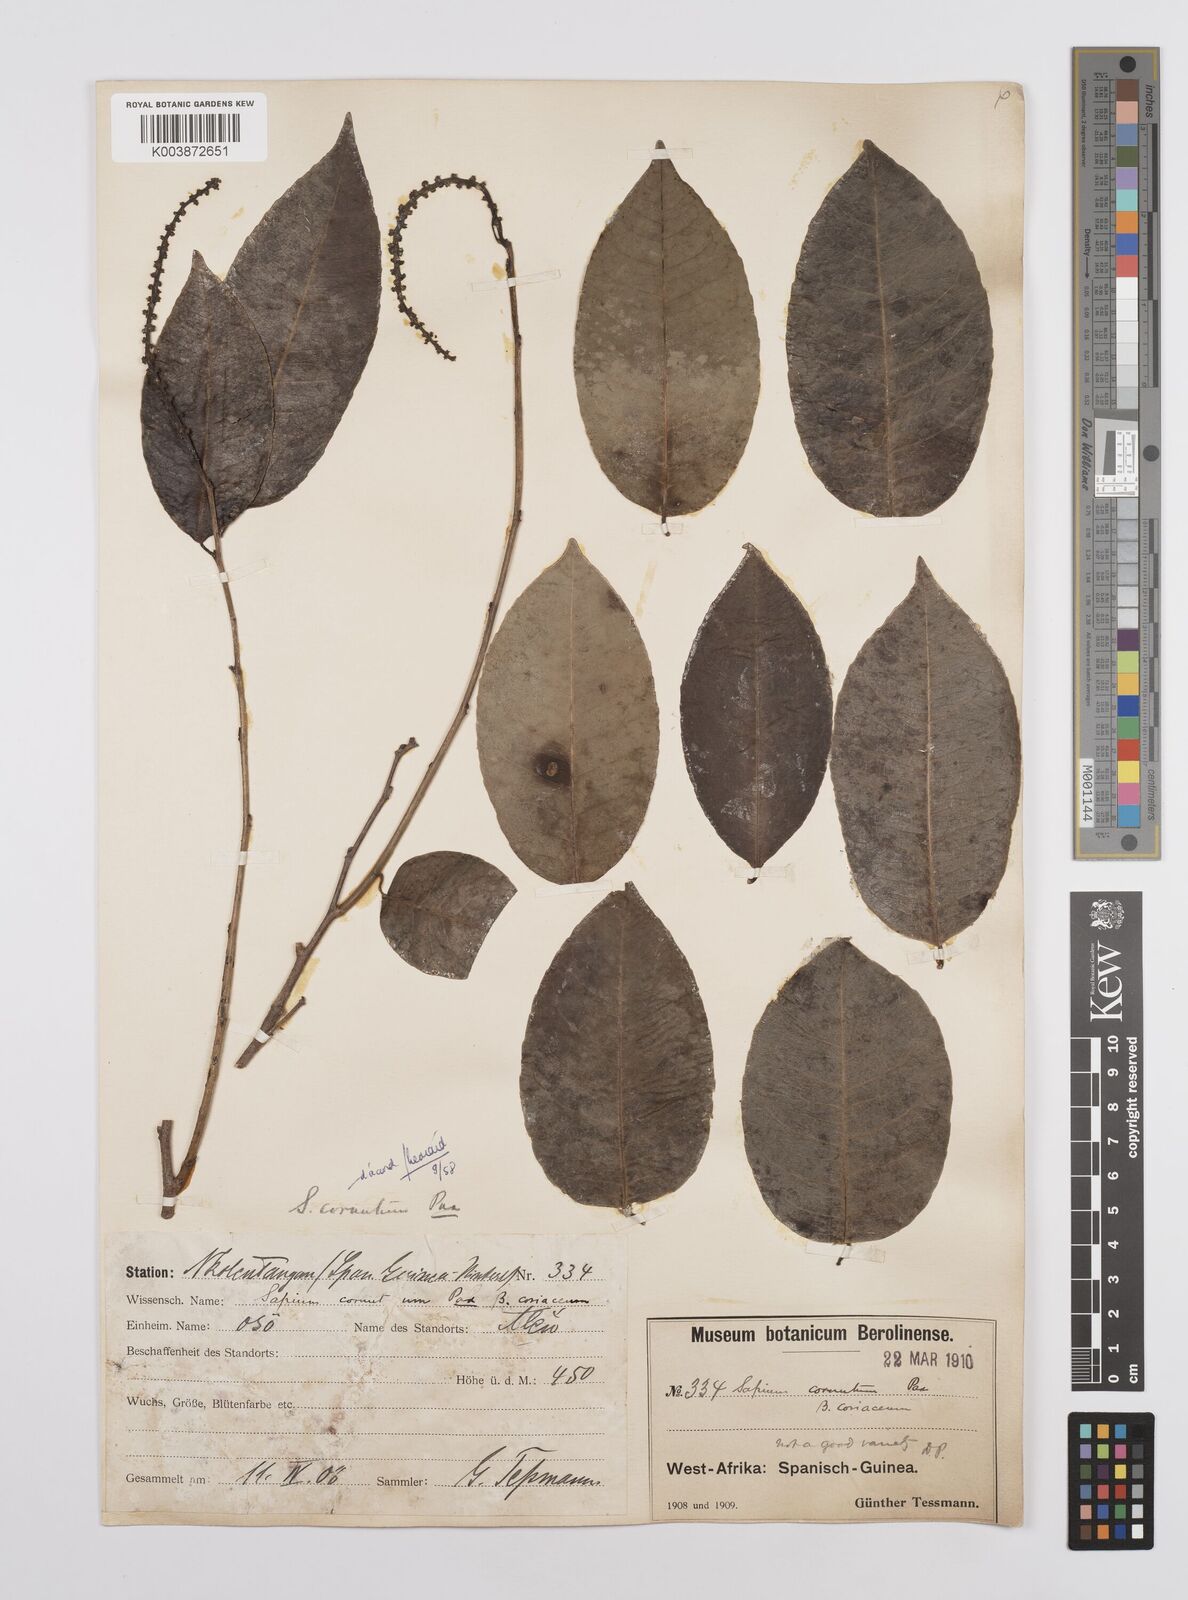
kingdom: Plantae
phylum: Tracheophyta
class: Magnoliopsida
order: Malpighiales
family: Euphorbiaceae
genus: Sclerocroton
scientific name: Sclerocroton cornutus
